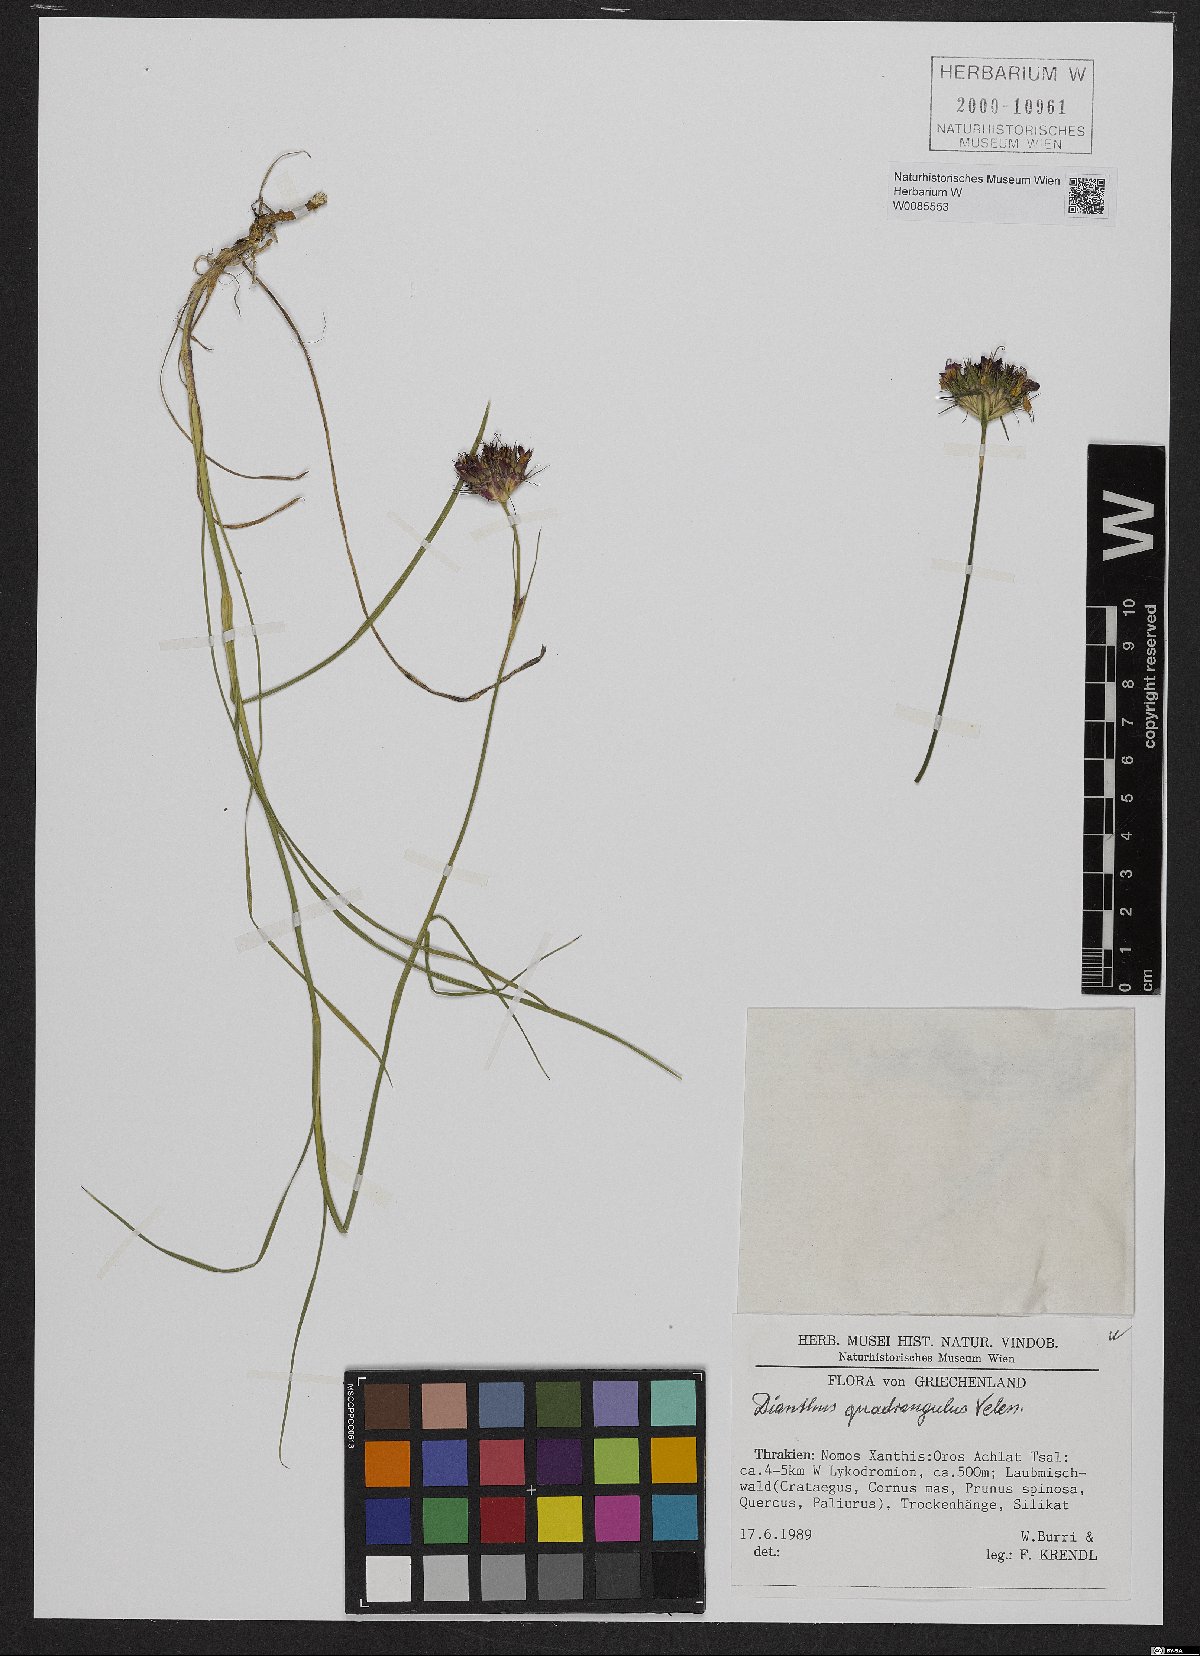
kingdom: Plantae
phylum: Tracheophyta
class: Magnoliopsida
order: Caryophyllales
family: Caryophyllaceae
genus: Dianthus
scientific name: Dianthus cruentus
